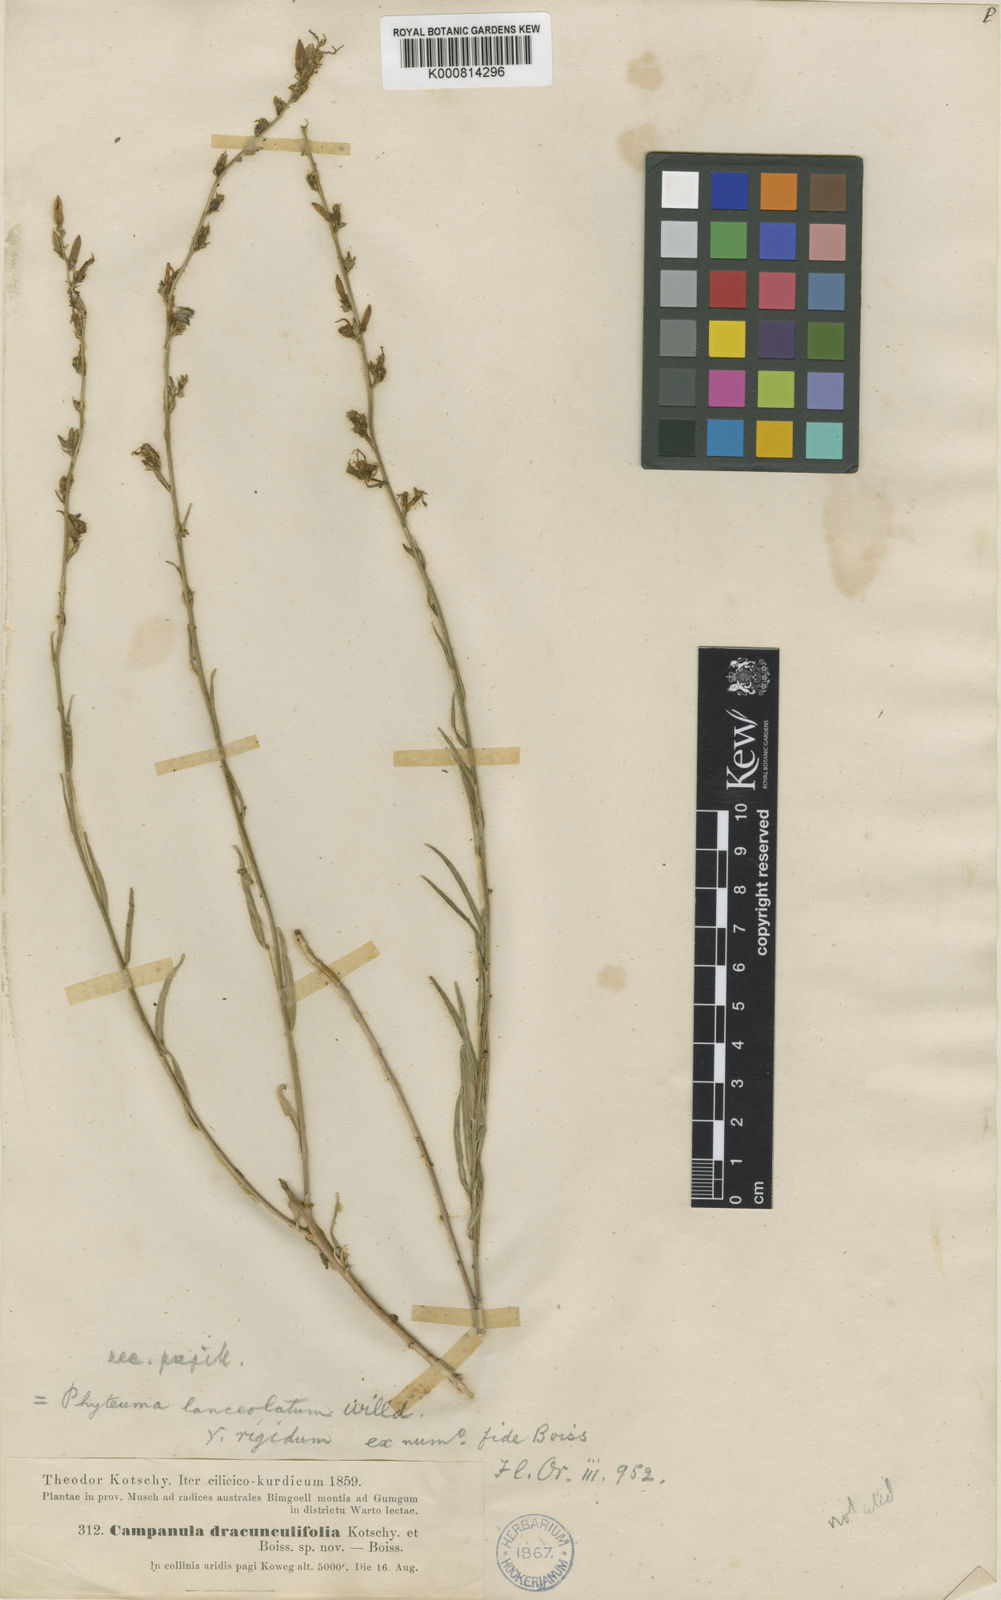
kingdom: Plantae
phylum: Tracheophyta
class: Magnoliopsida
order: Asterales
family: Campanulaceae
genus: Asyneuma
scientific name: Asyneuma rigidum
